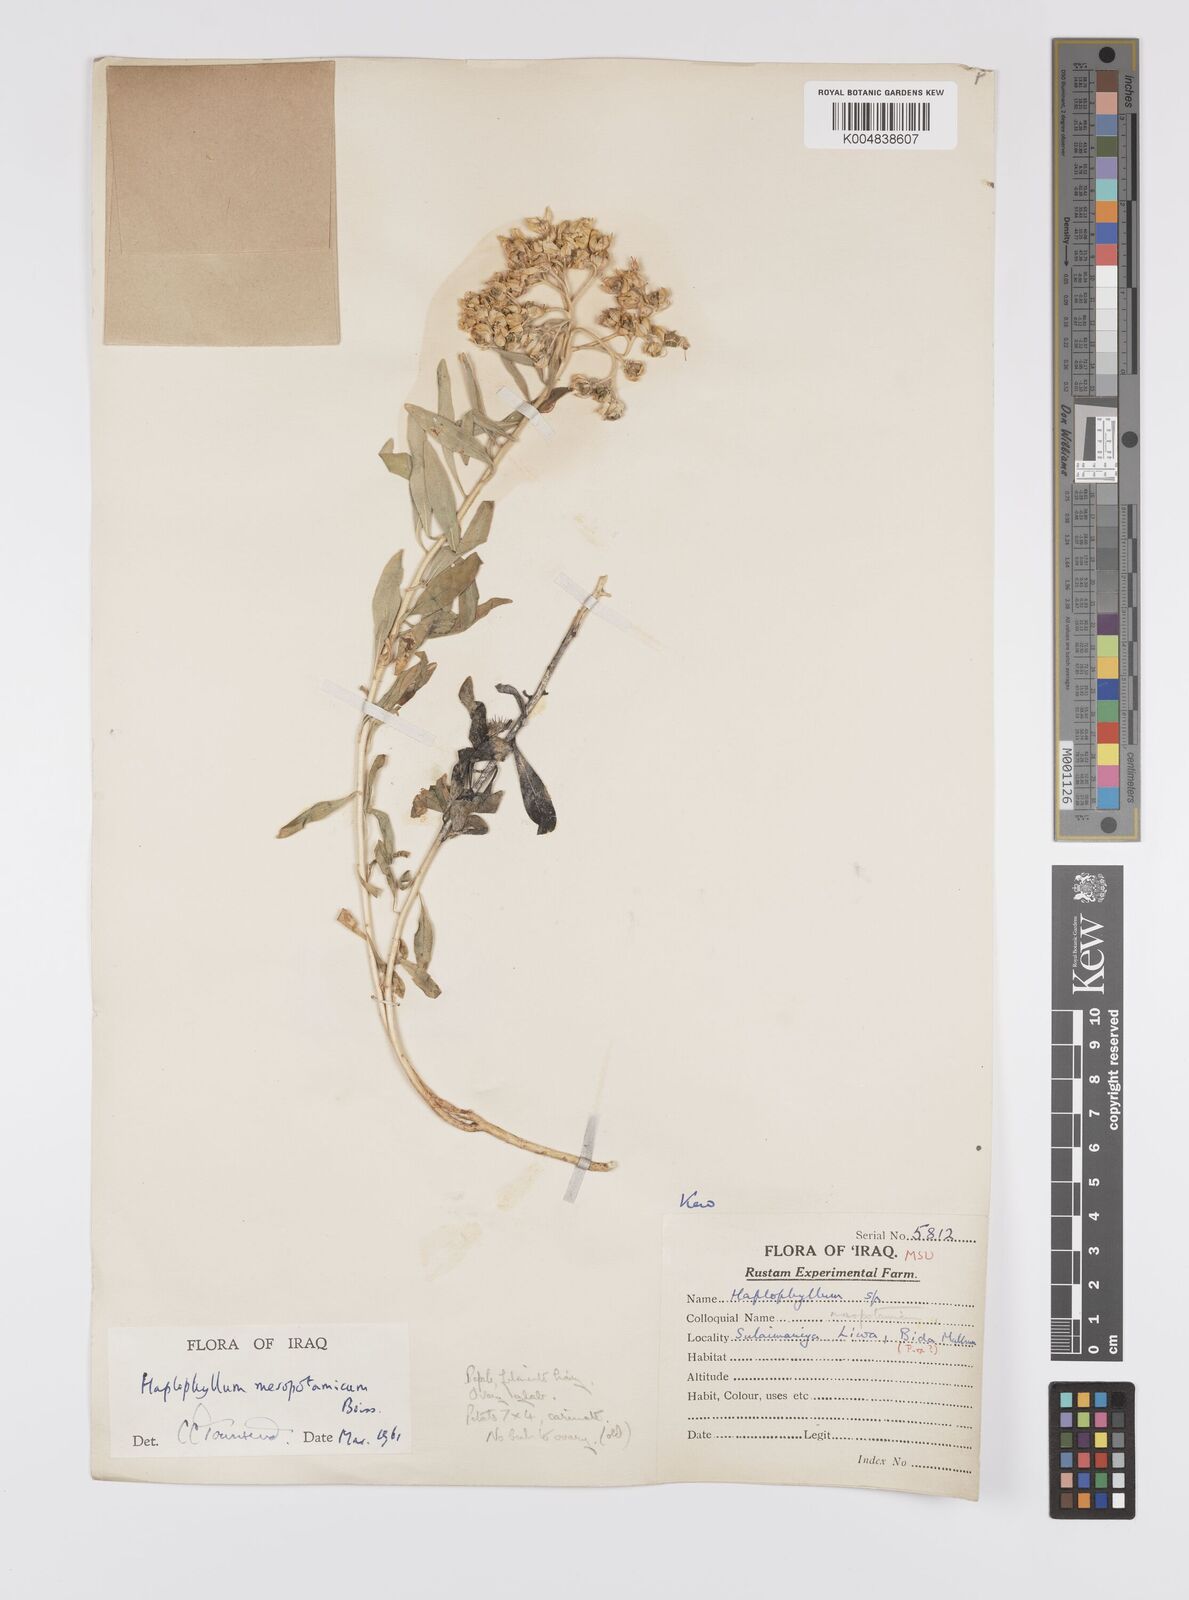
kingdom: Plantae
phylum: Tracheophyta
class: Magnoliopsida
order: Sapindales
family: Rutaceae
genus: Haplophyllum
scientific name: Haplophyllum buxbaumii
